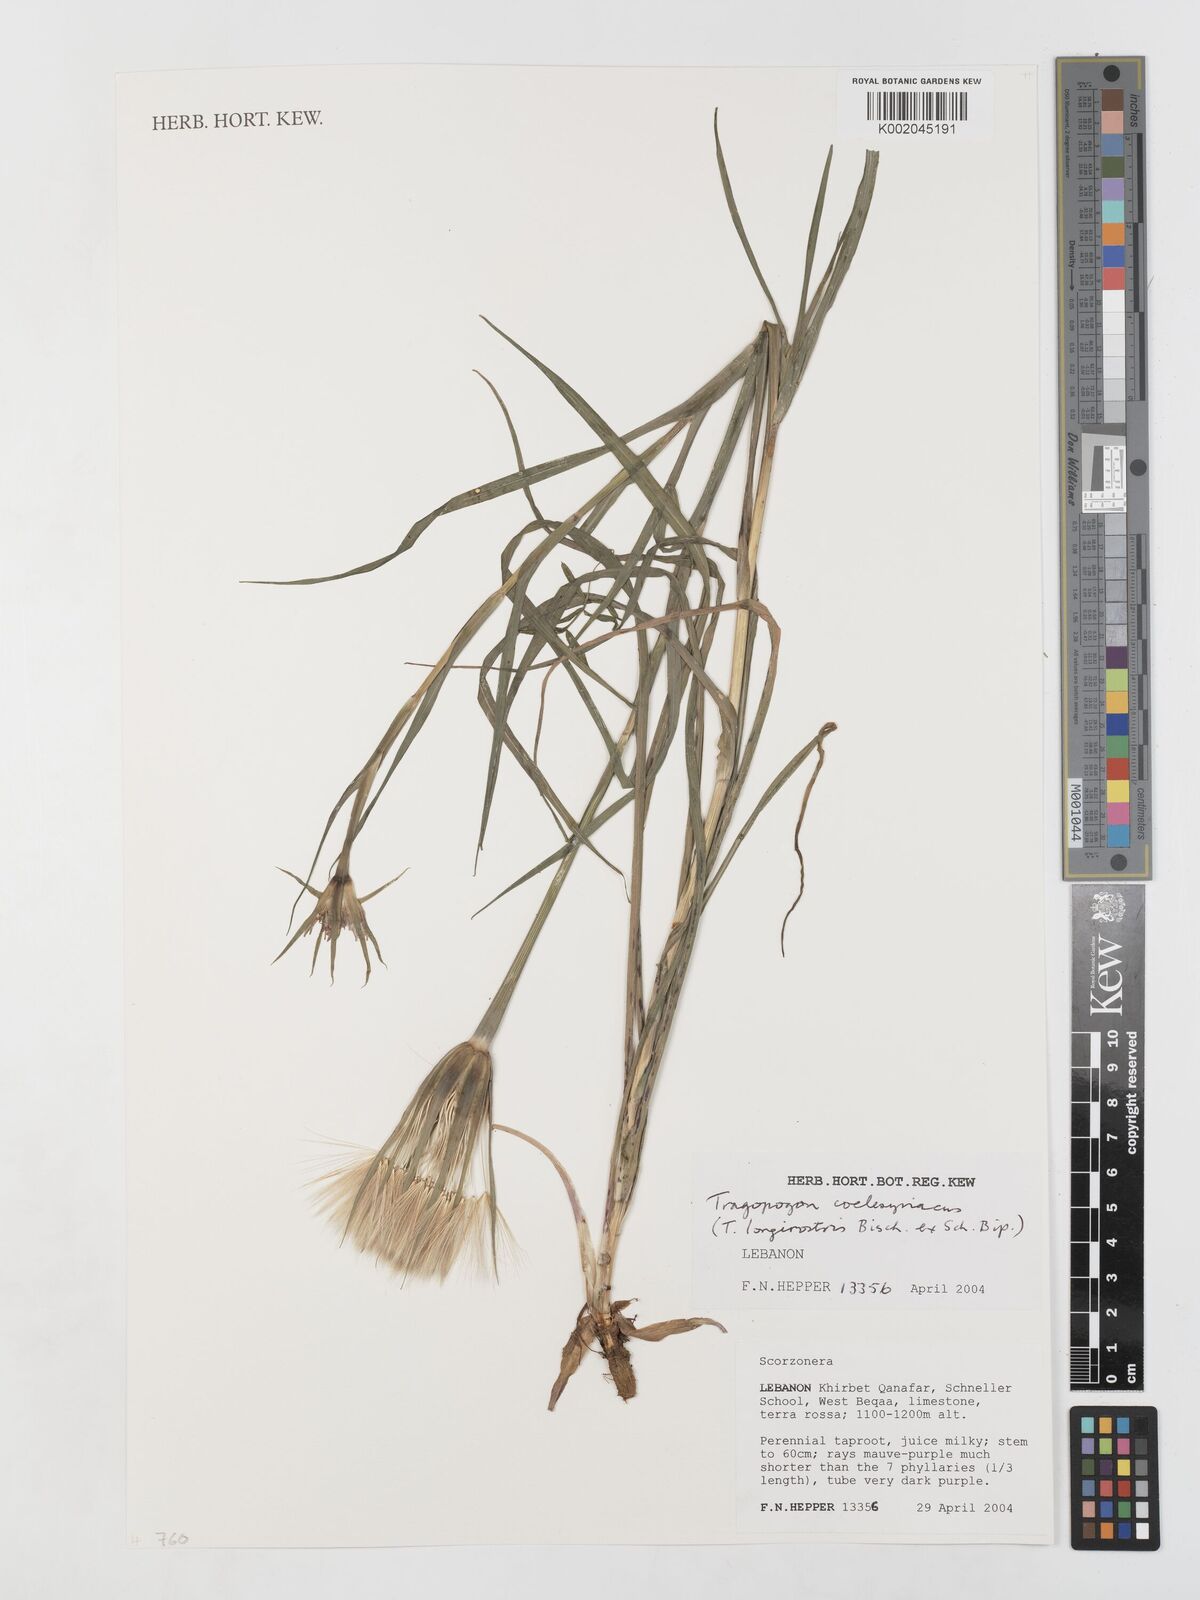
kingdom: Plantae
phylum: Tracheophyta
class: Magnoliopsida
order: Asterales
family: Asteraceae
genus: Tragopogon
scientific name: Tragopogon coelesyriacus
